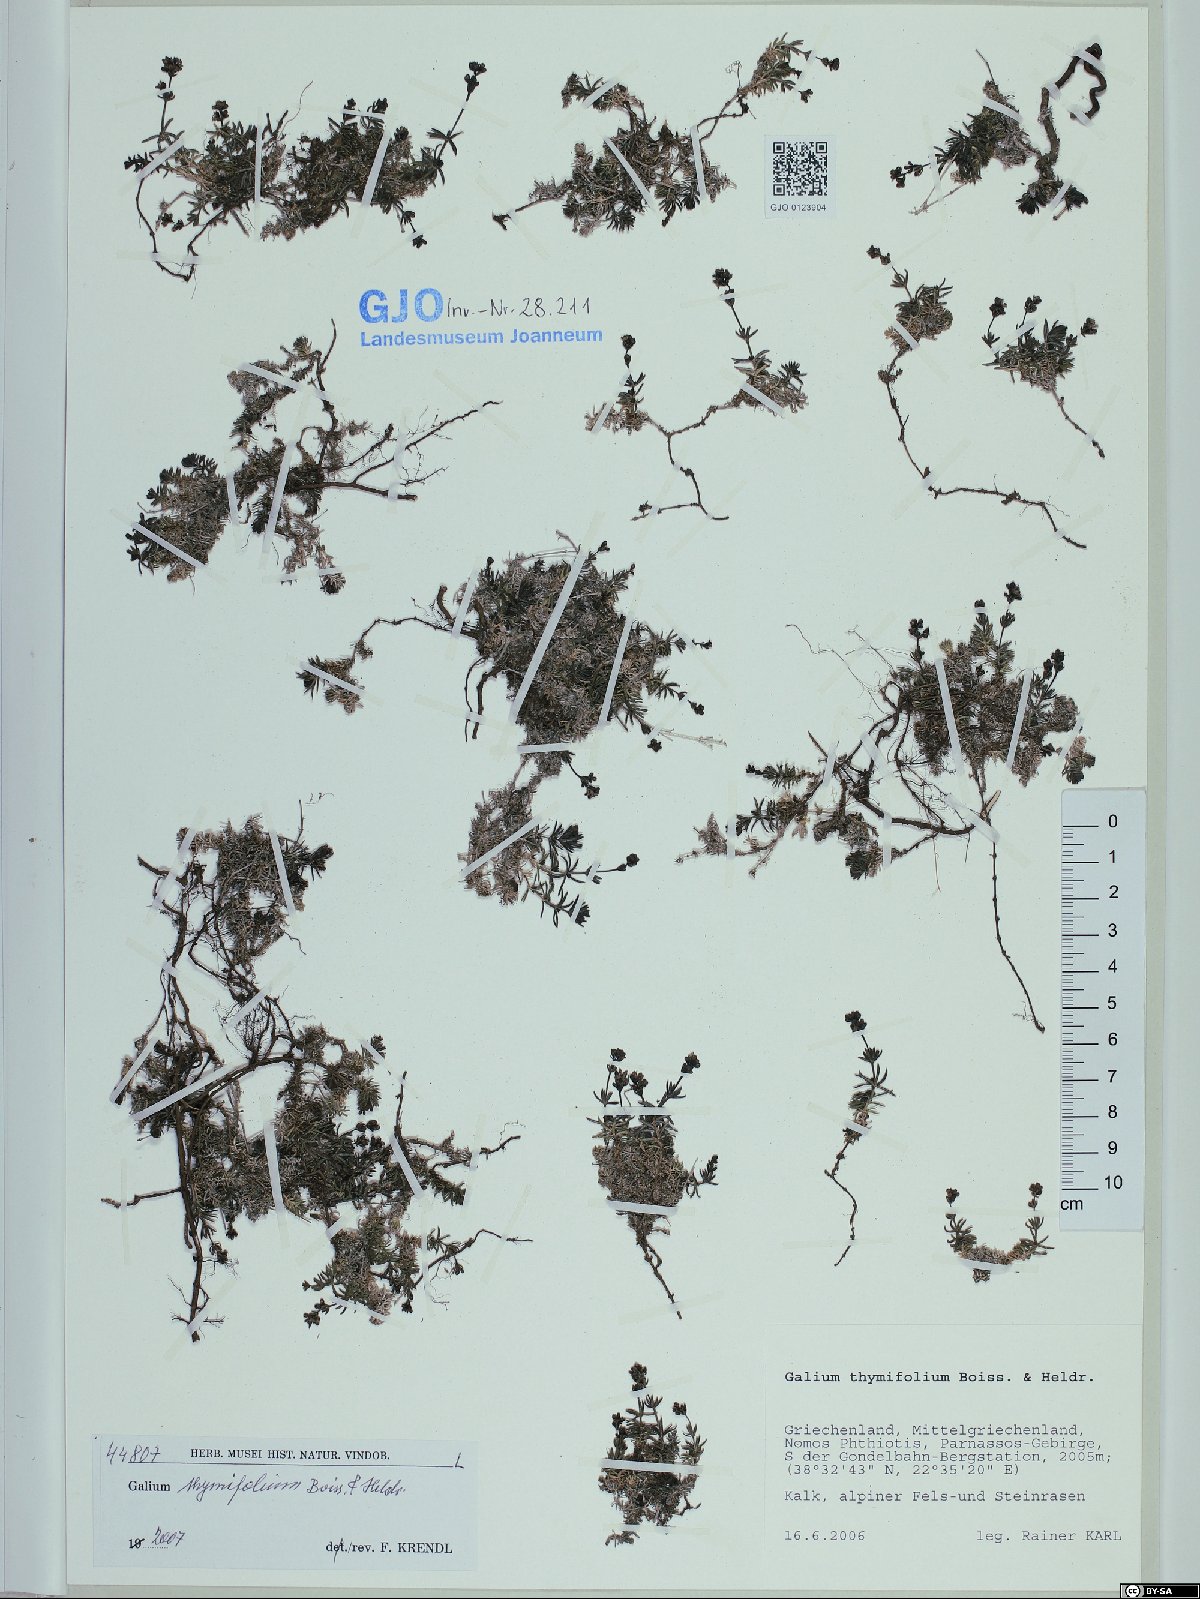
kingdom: Plantae
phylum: Tracheophyta
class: Magnoliopsida
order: Gentianales
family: Rubiaceae
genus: Galium
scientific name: Galium thymifolium
